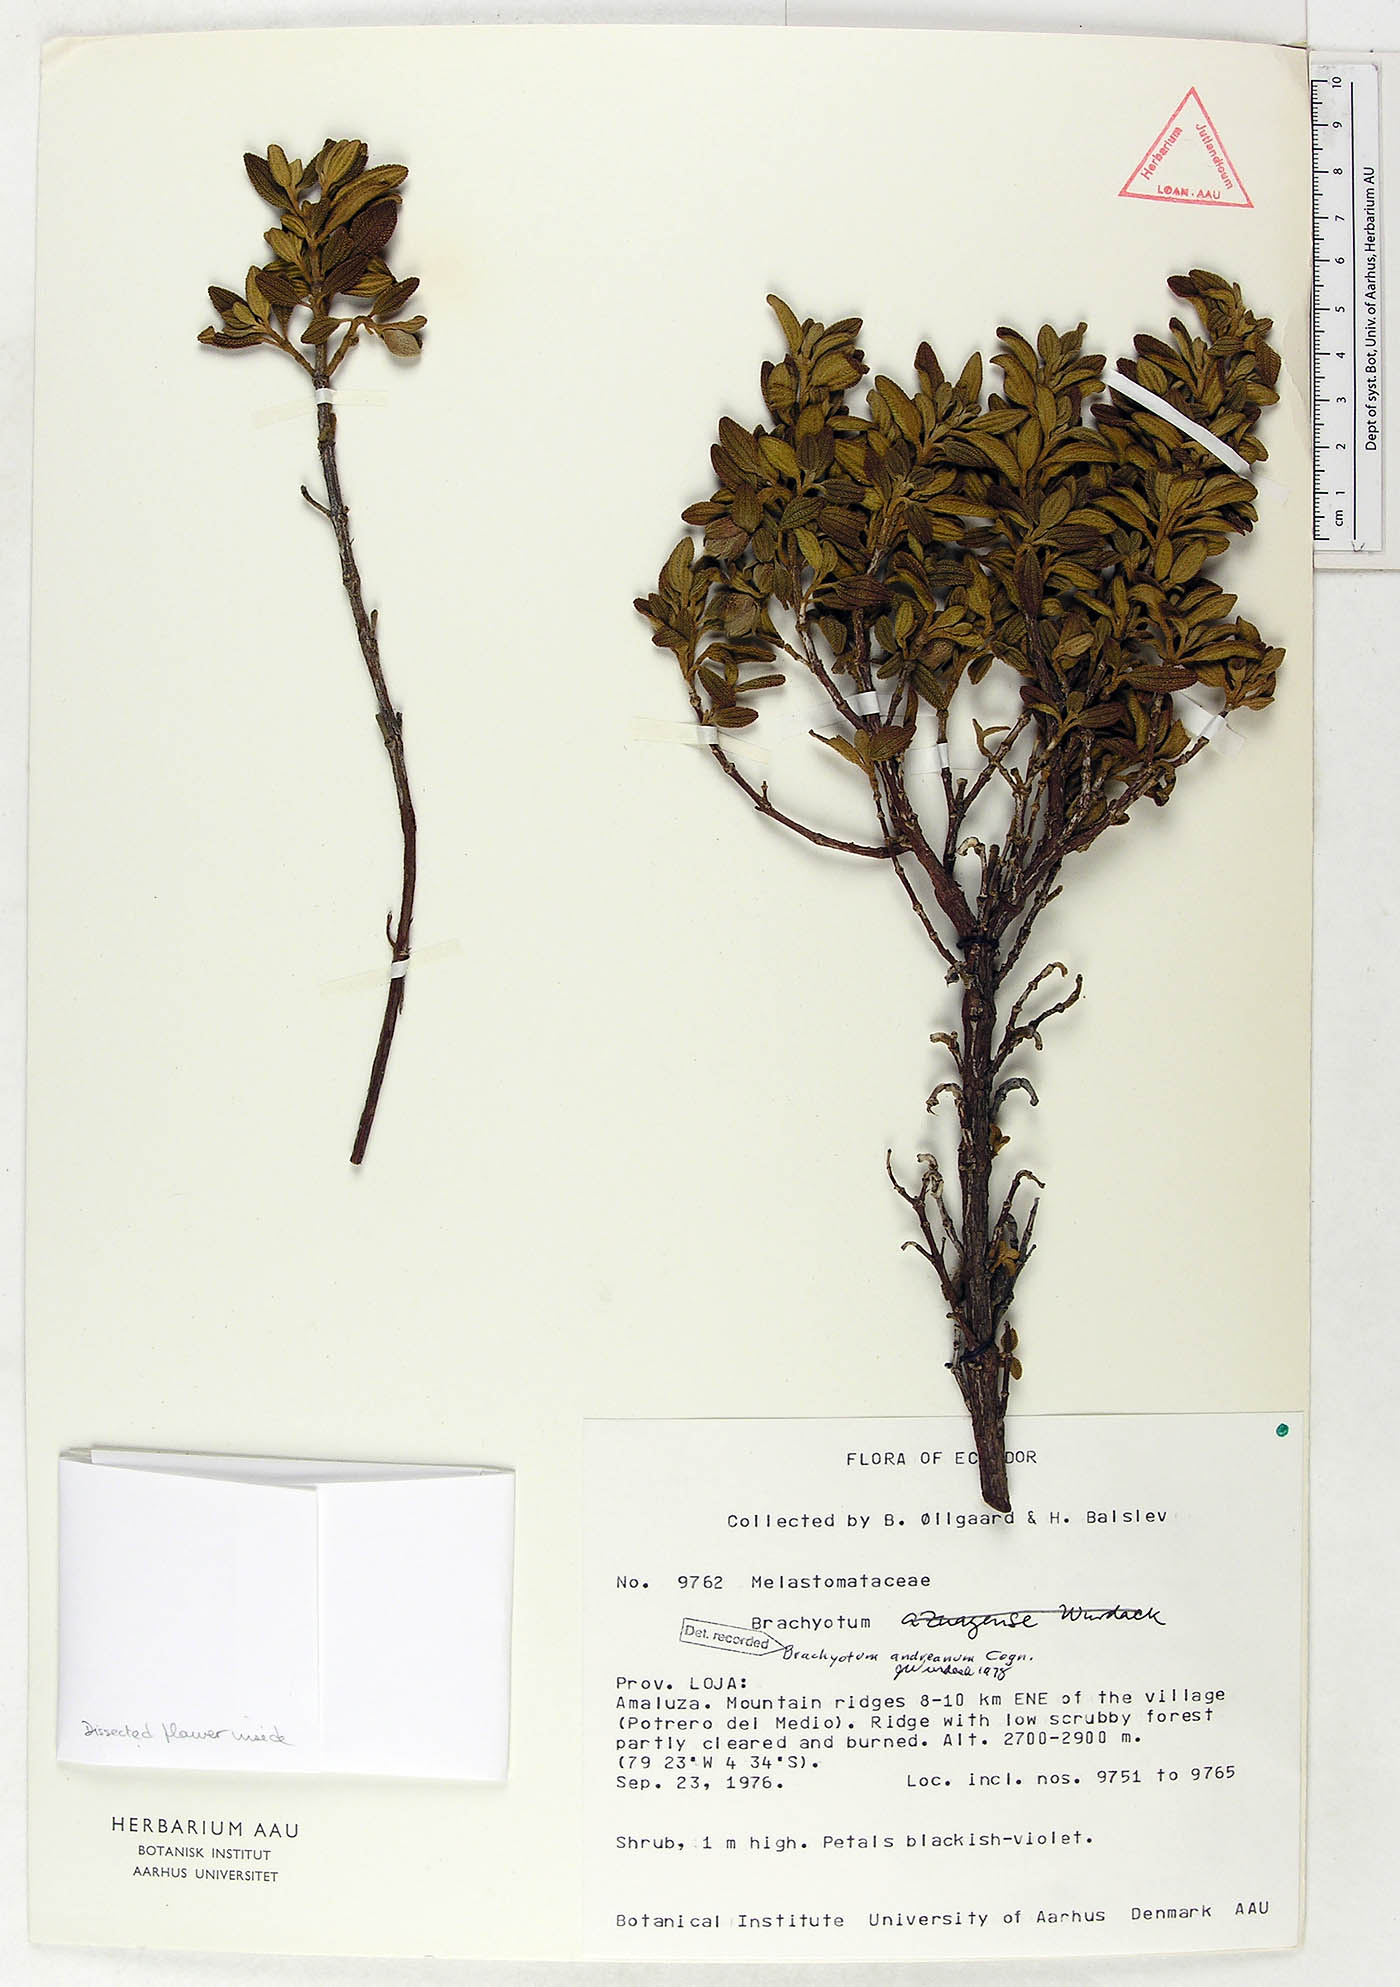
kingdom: Plantae
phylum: Tracheophyta
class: Magnoliopsida
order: Myrtales
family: Melastomataceae
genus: Brachyotum
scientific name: Brachyotum andreanum
